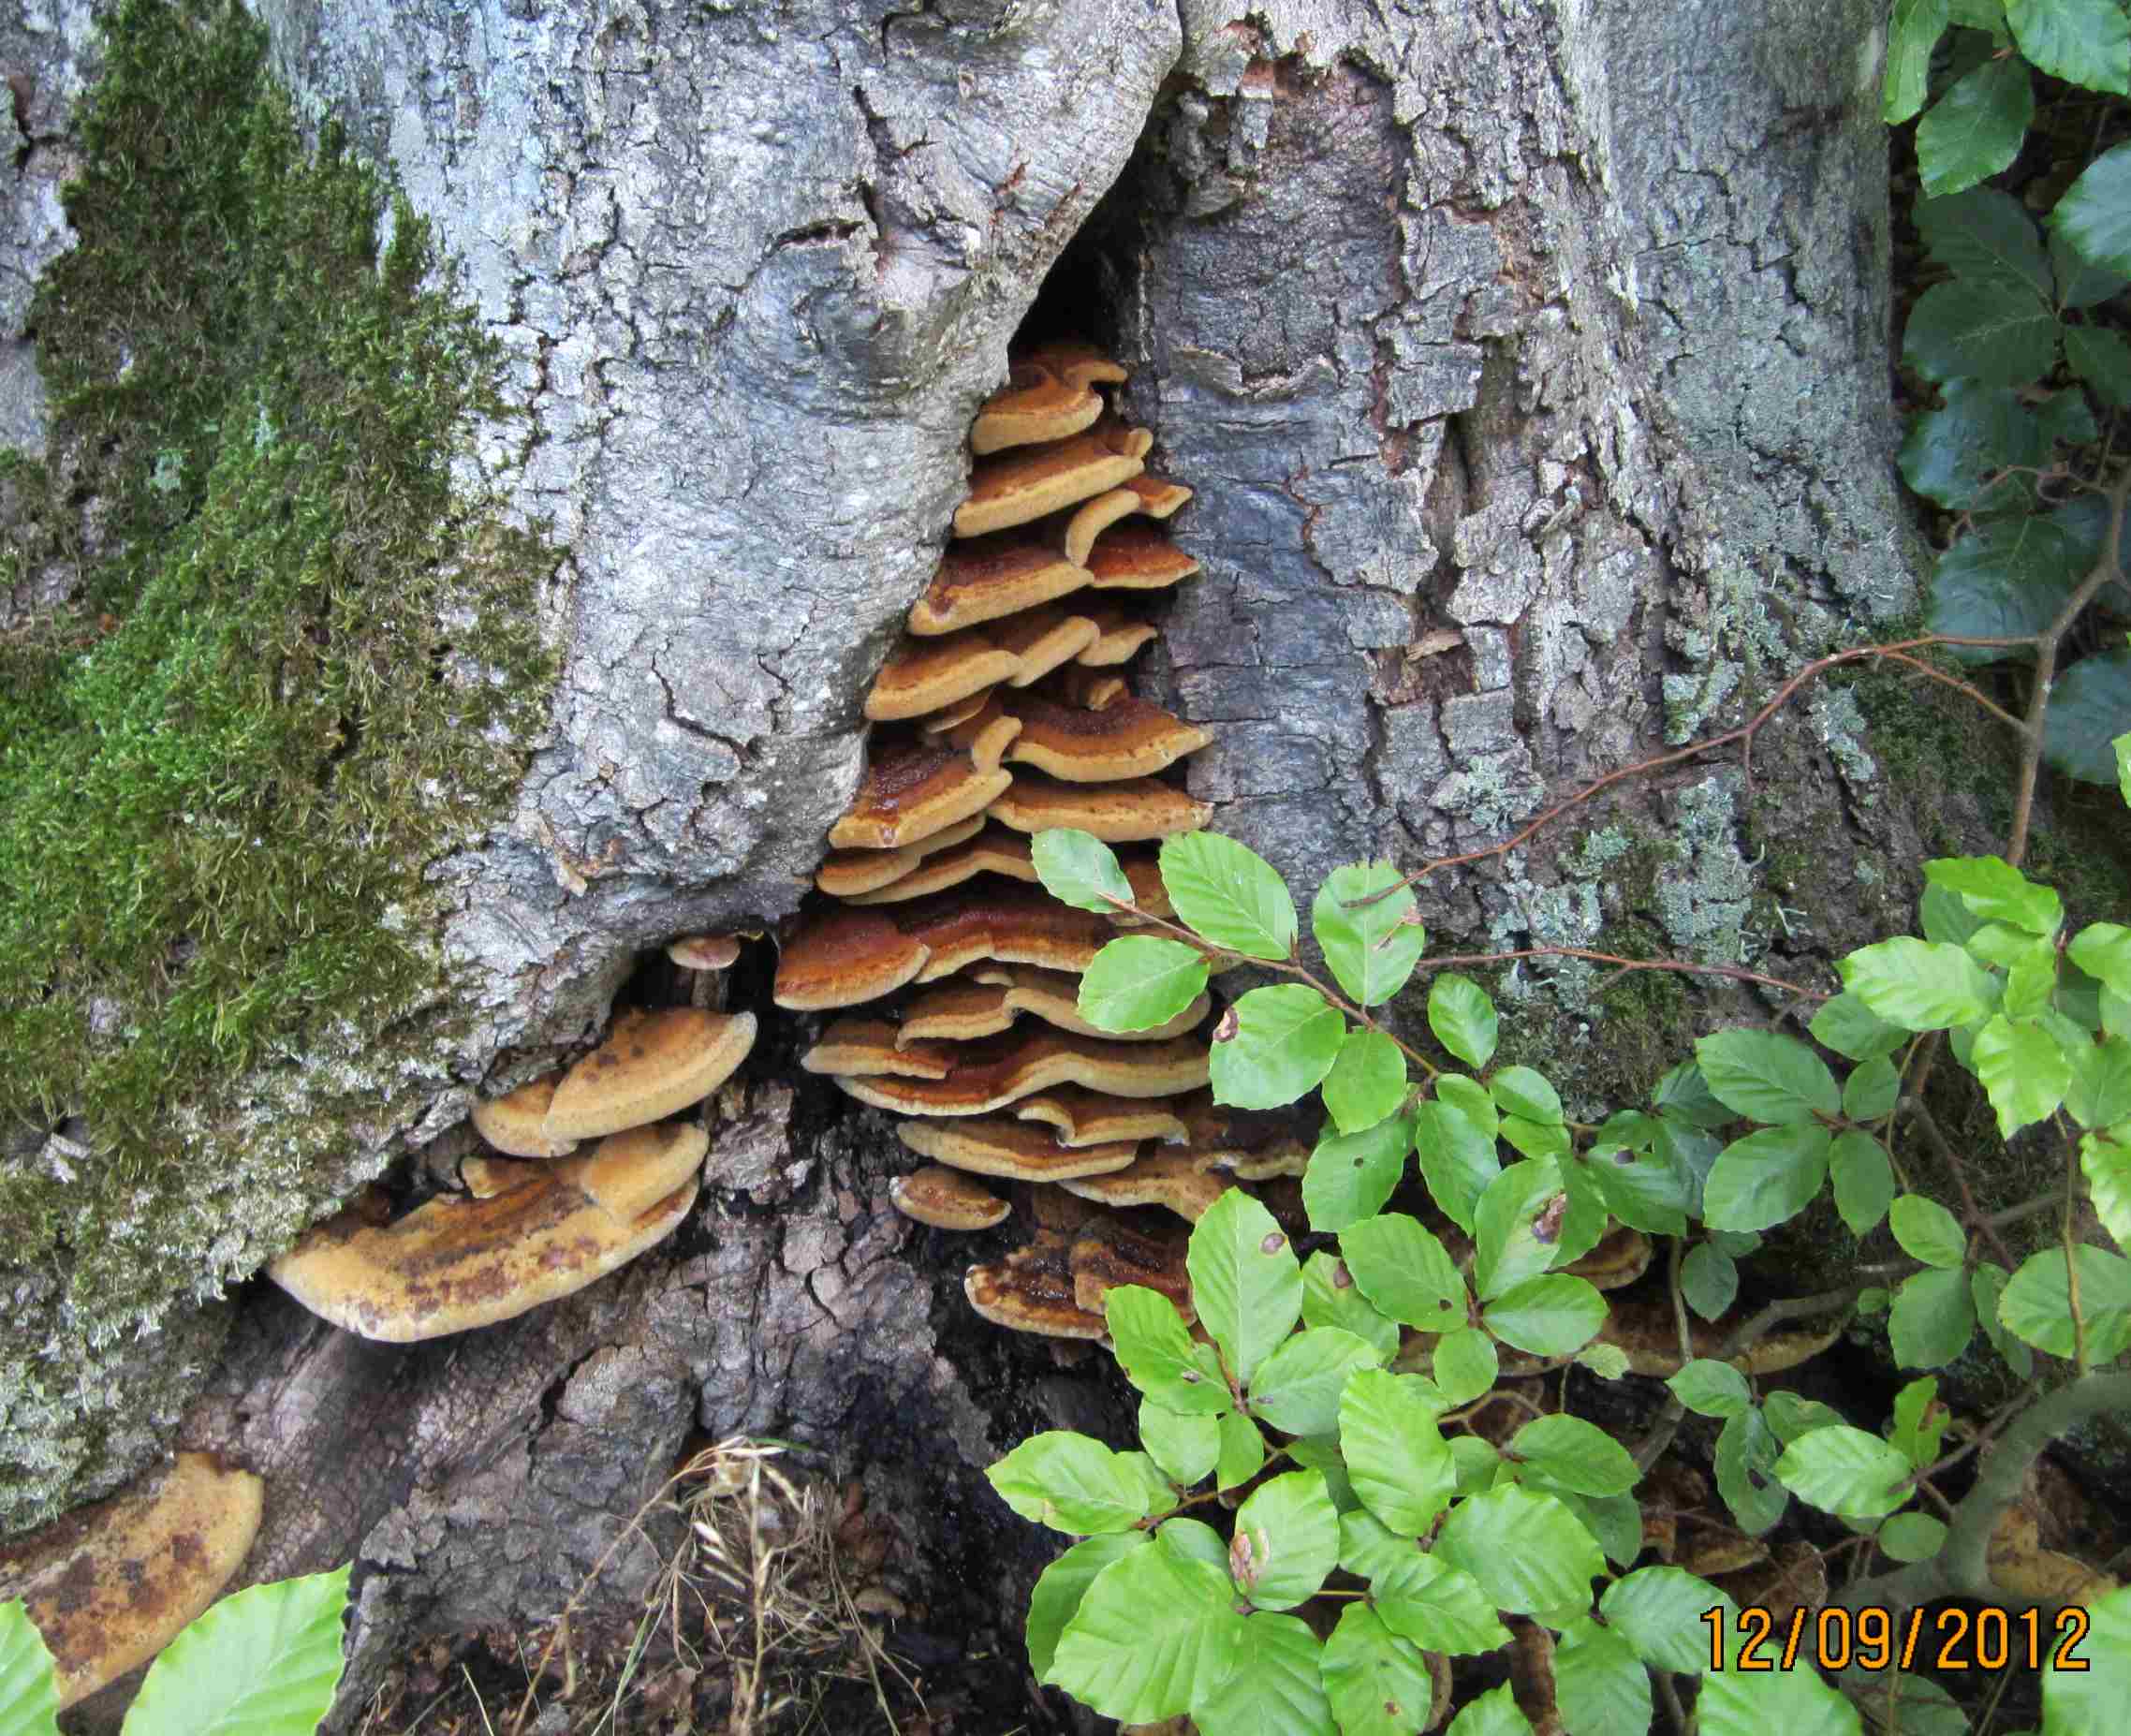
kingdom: Fungi
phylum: Basidiomycota
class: Agaricomycetes
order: Hymenochaetales
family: Hymenochaetaceae
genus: Inonotus
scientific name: Inonotus cuticularis
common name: kroghåret spejlporesvamp
